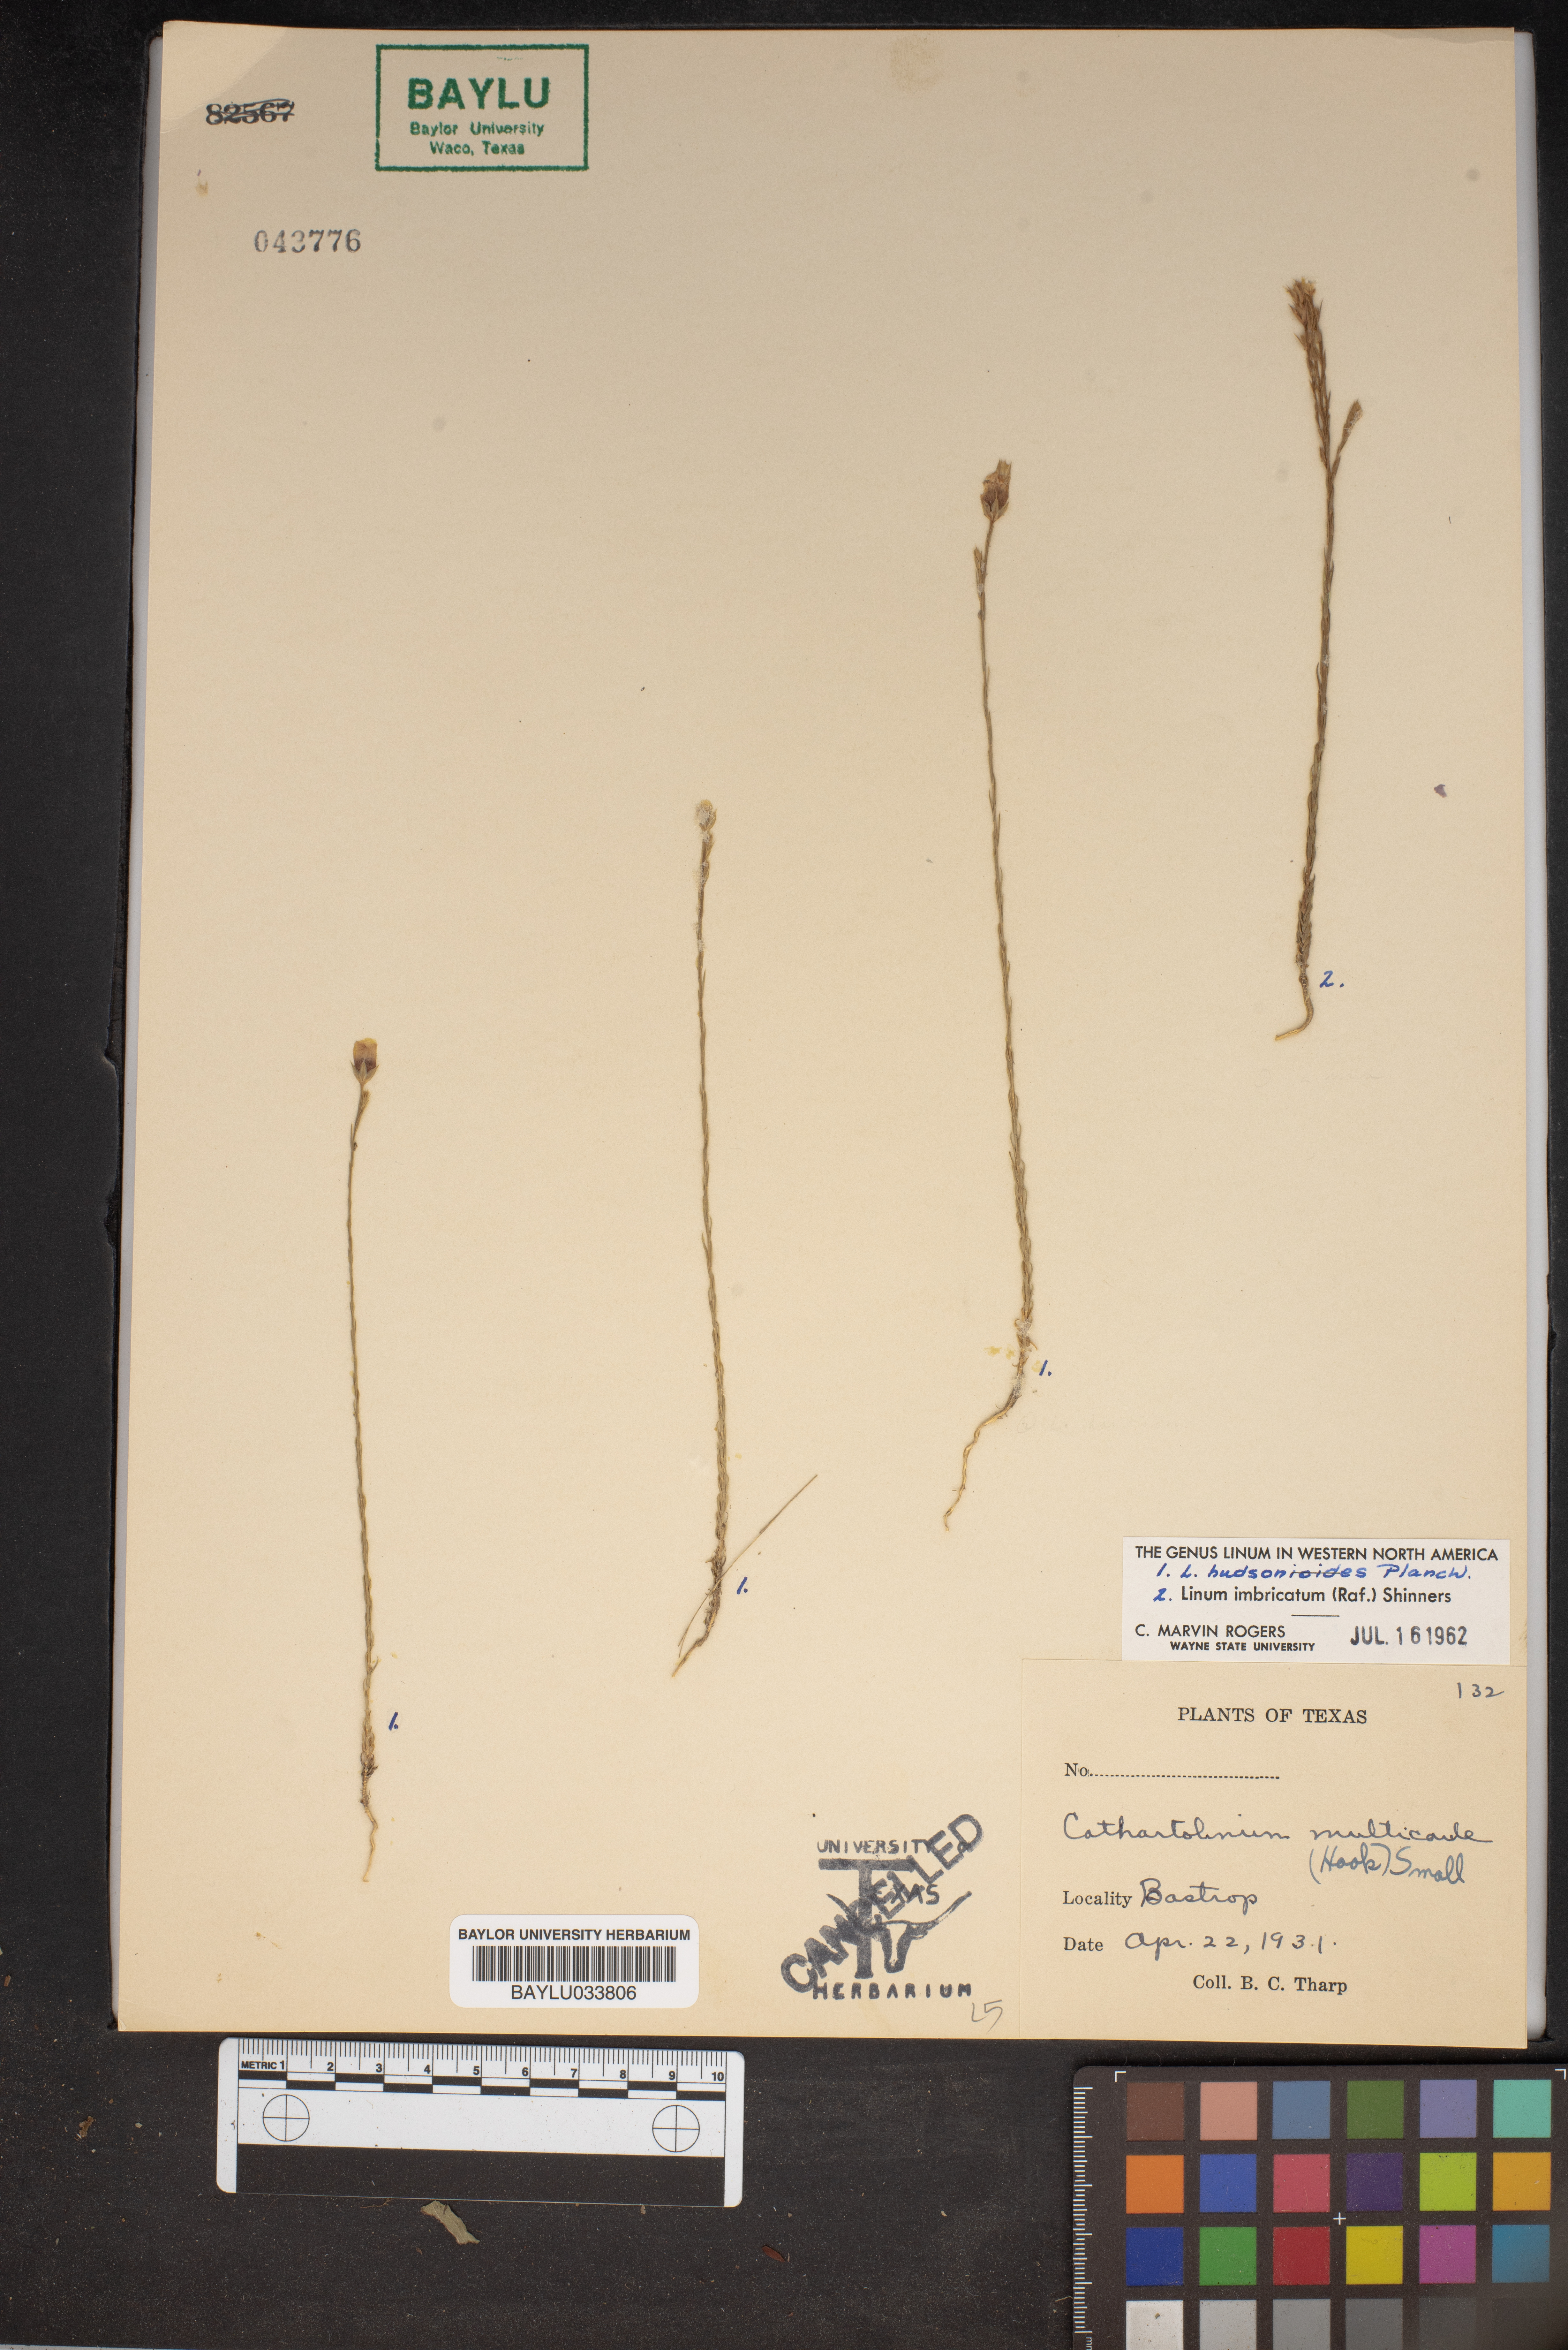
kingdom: Plantae
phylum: Tracheophyta
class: Magnoliopsida
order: Malpighiales
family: Linaceae
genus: Linum
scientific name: Linum imbricatum
